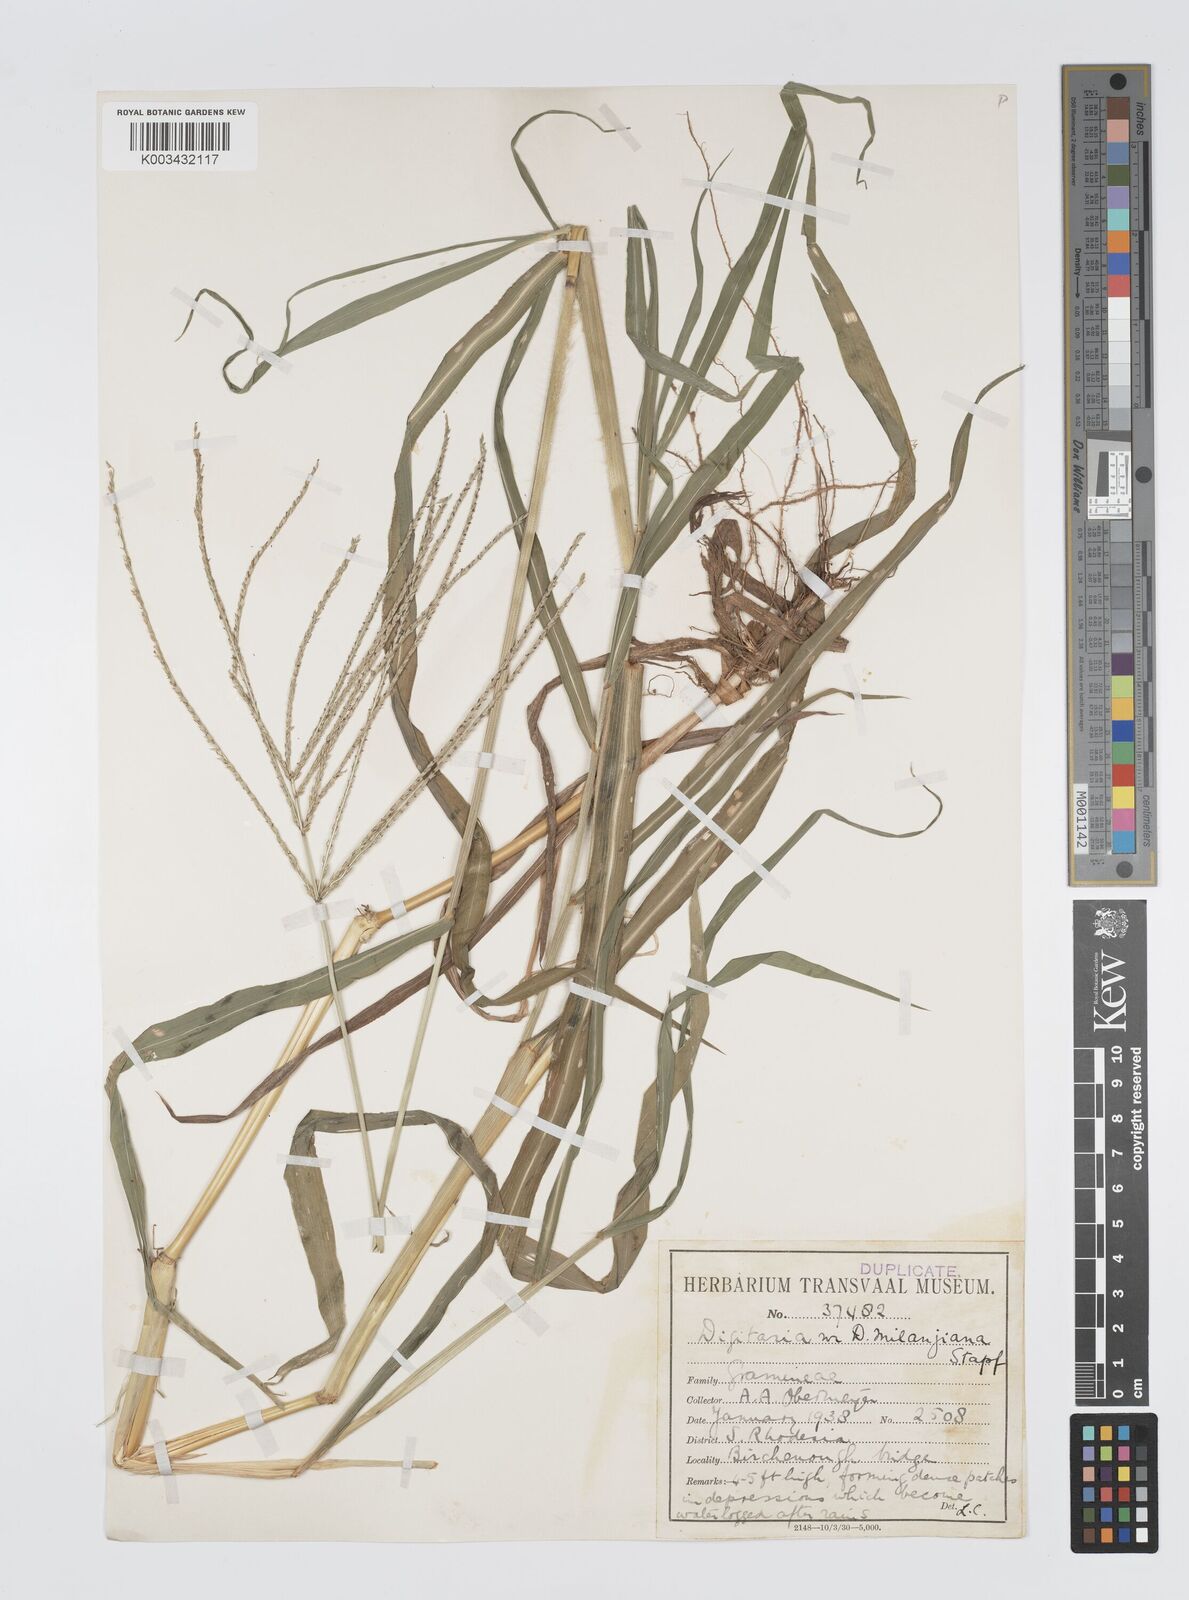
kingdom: Plantae
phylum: Tracheophyta
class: Liliopsida
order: Poales
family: Poaceae
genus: Digitaria
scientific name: Digitaria milanjiana
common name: Madagascar crabgrass
